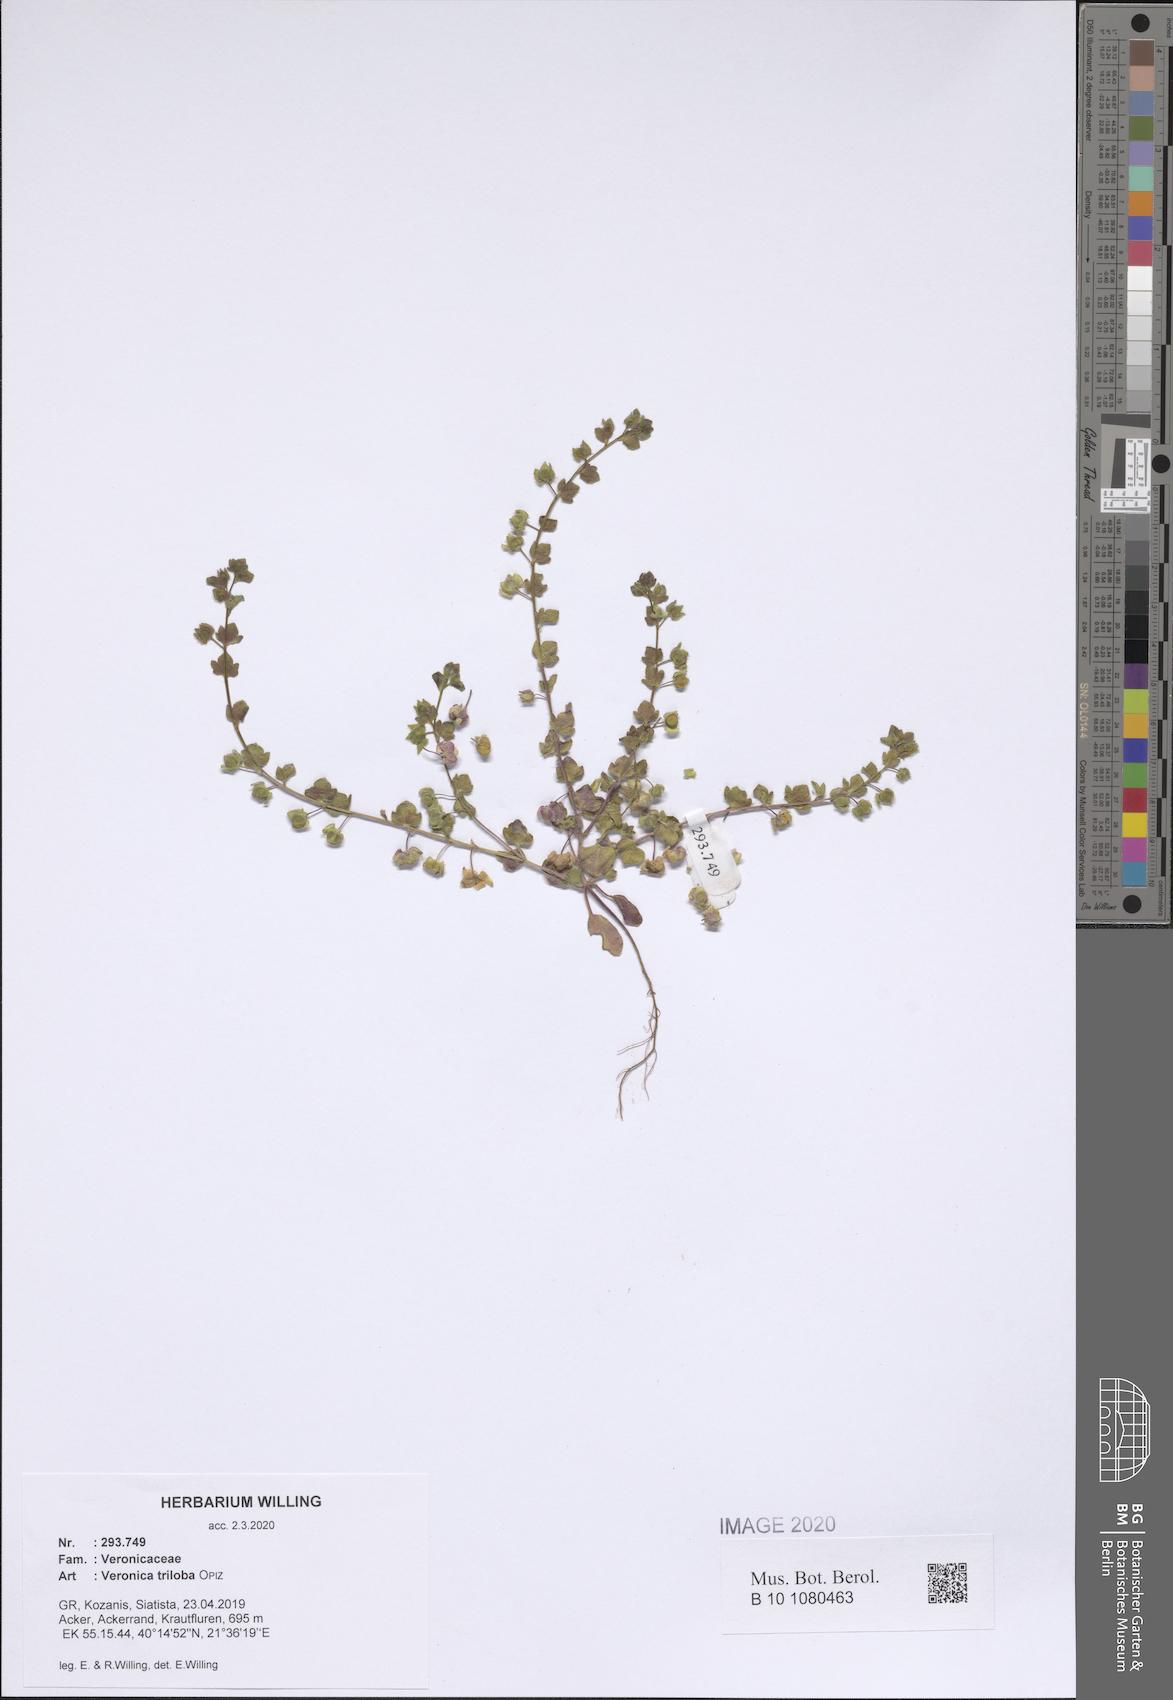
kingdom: Plantae
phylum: Tracheophyta
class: Magnoliopsida
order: Lamiales
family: Plantaginaceae
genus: Veronica
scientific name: Veronica triloba
